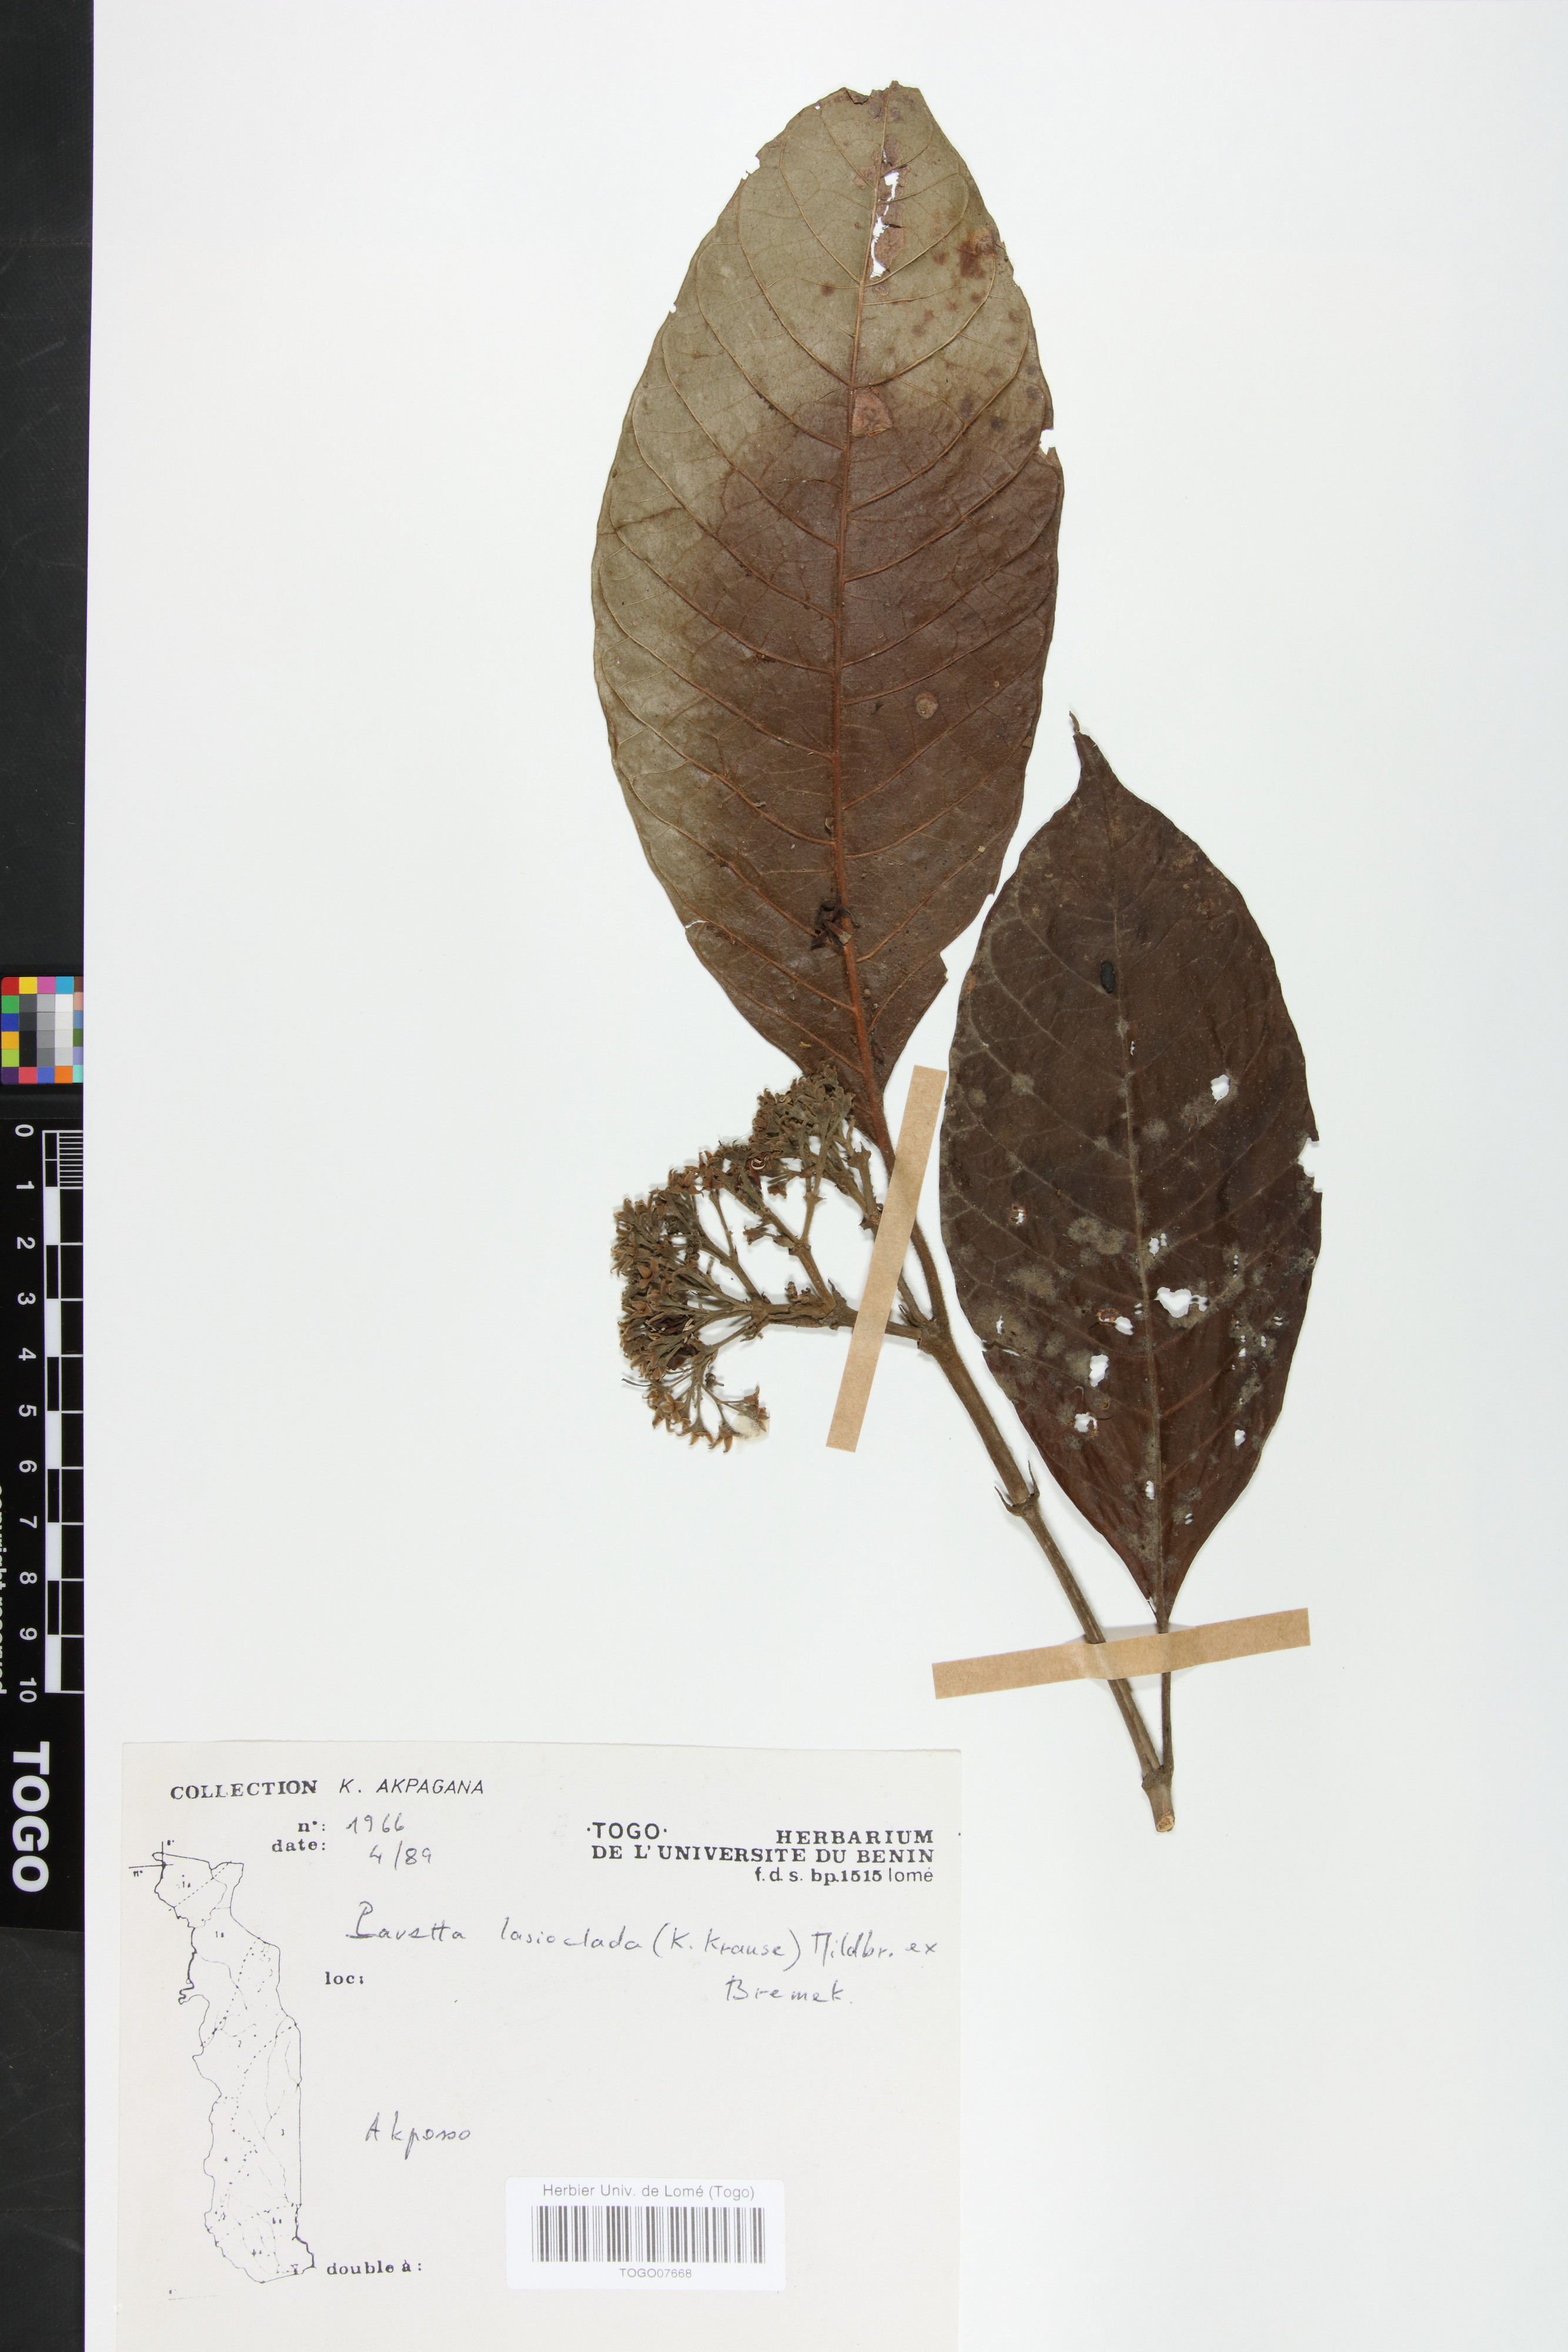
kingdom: Plantae
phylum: Tracheophyta
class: Magnoliopsida
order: Gentianales
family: Rubiaceae
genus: Pavetta
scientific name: Pavetta lasioclada
